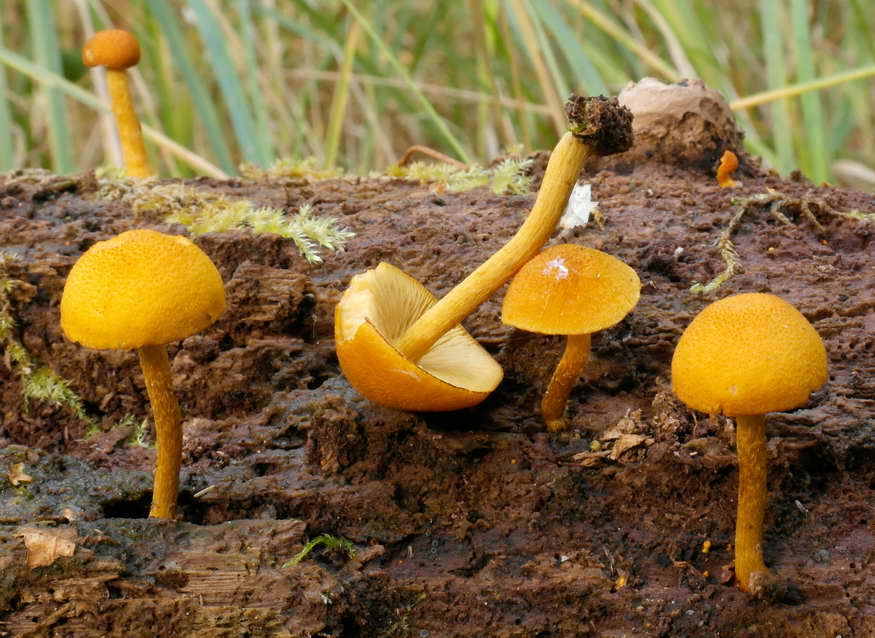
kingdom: Fungi
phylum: Basidiomycota
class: Agaricomycetes
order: Agaricales
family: Tubariaceae
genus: Flammulaster
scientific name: Flammulaster limulatus
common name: gylden grynskælhat
